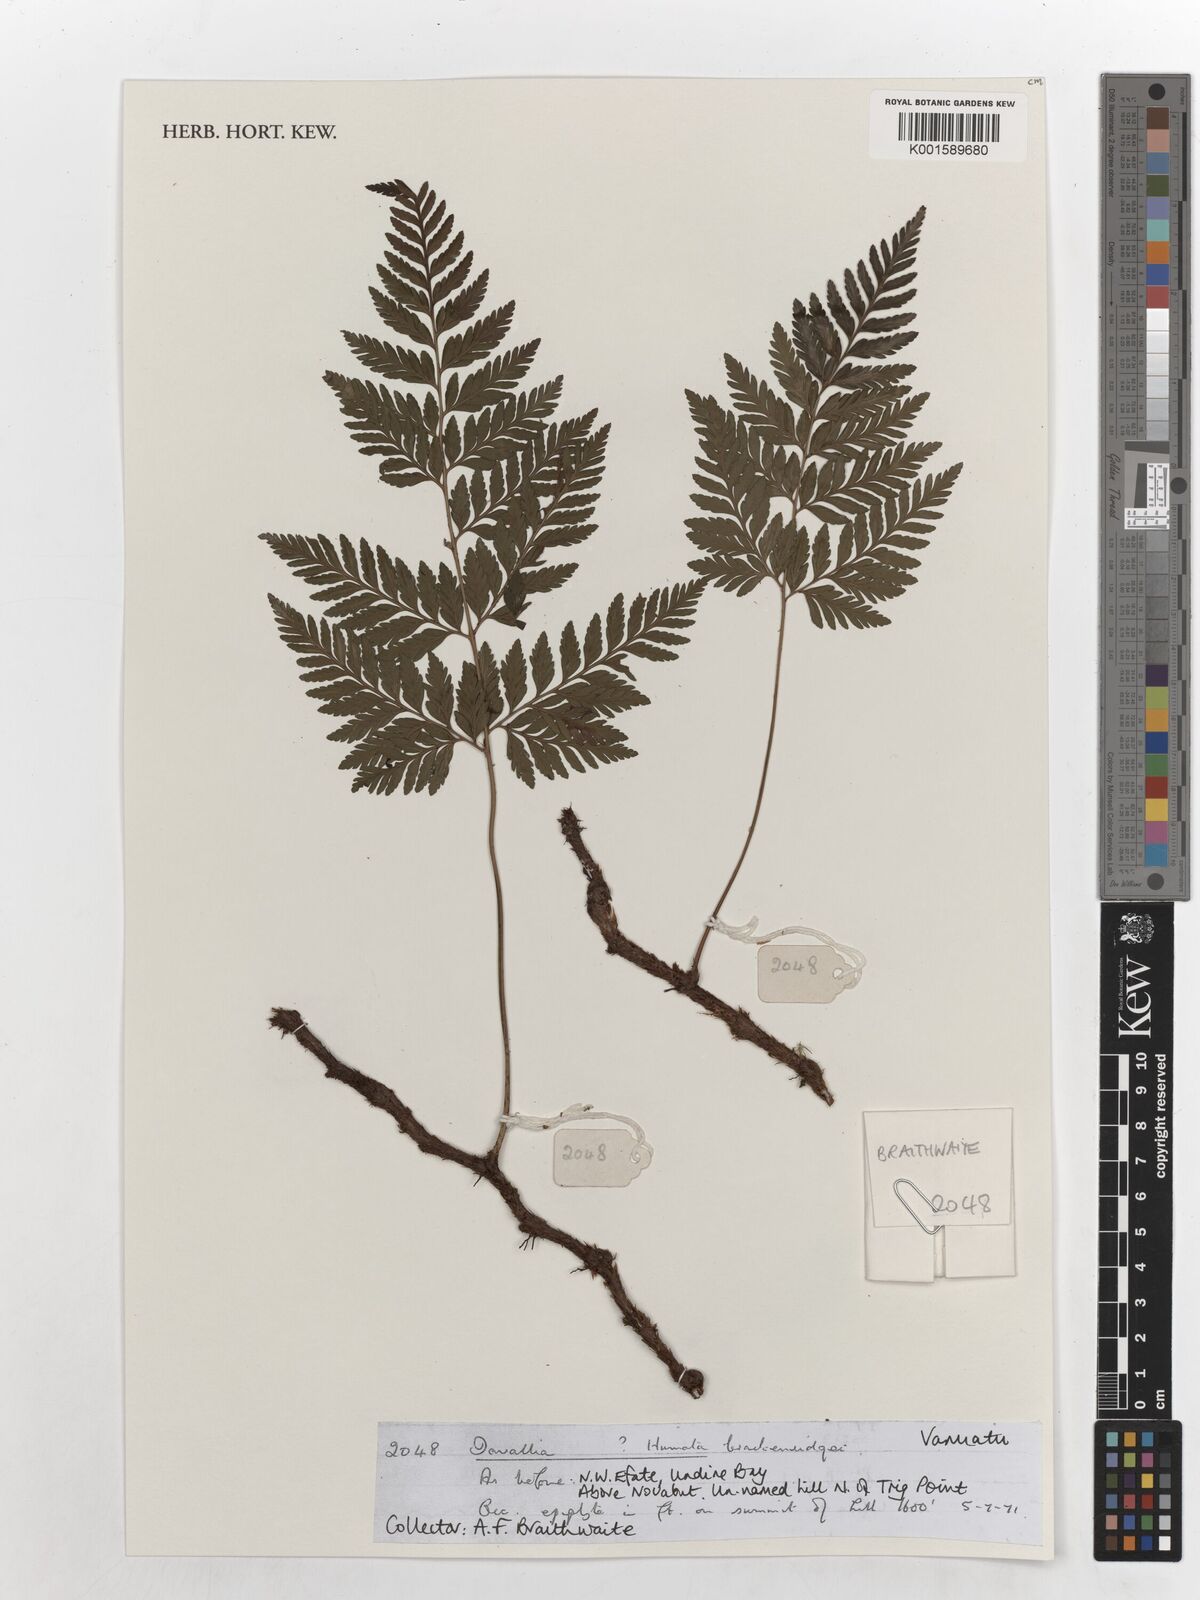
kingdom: Plantae
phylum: Tracheophyta
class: Polypodiopsida
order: Polypodiales
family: Davalliaceae
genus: Davallia
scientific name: Davallia cumingii
